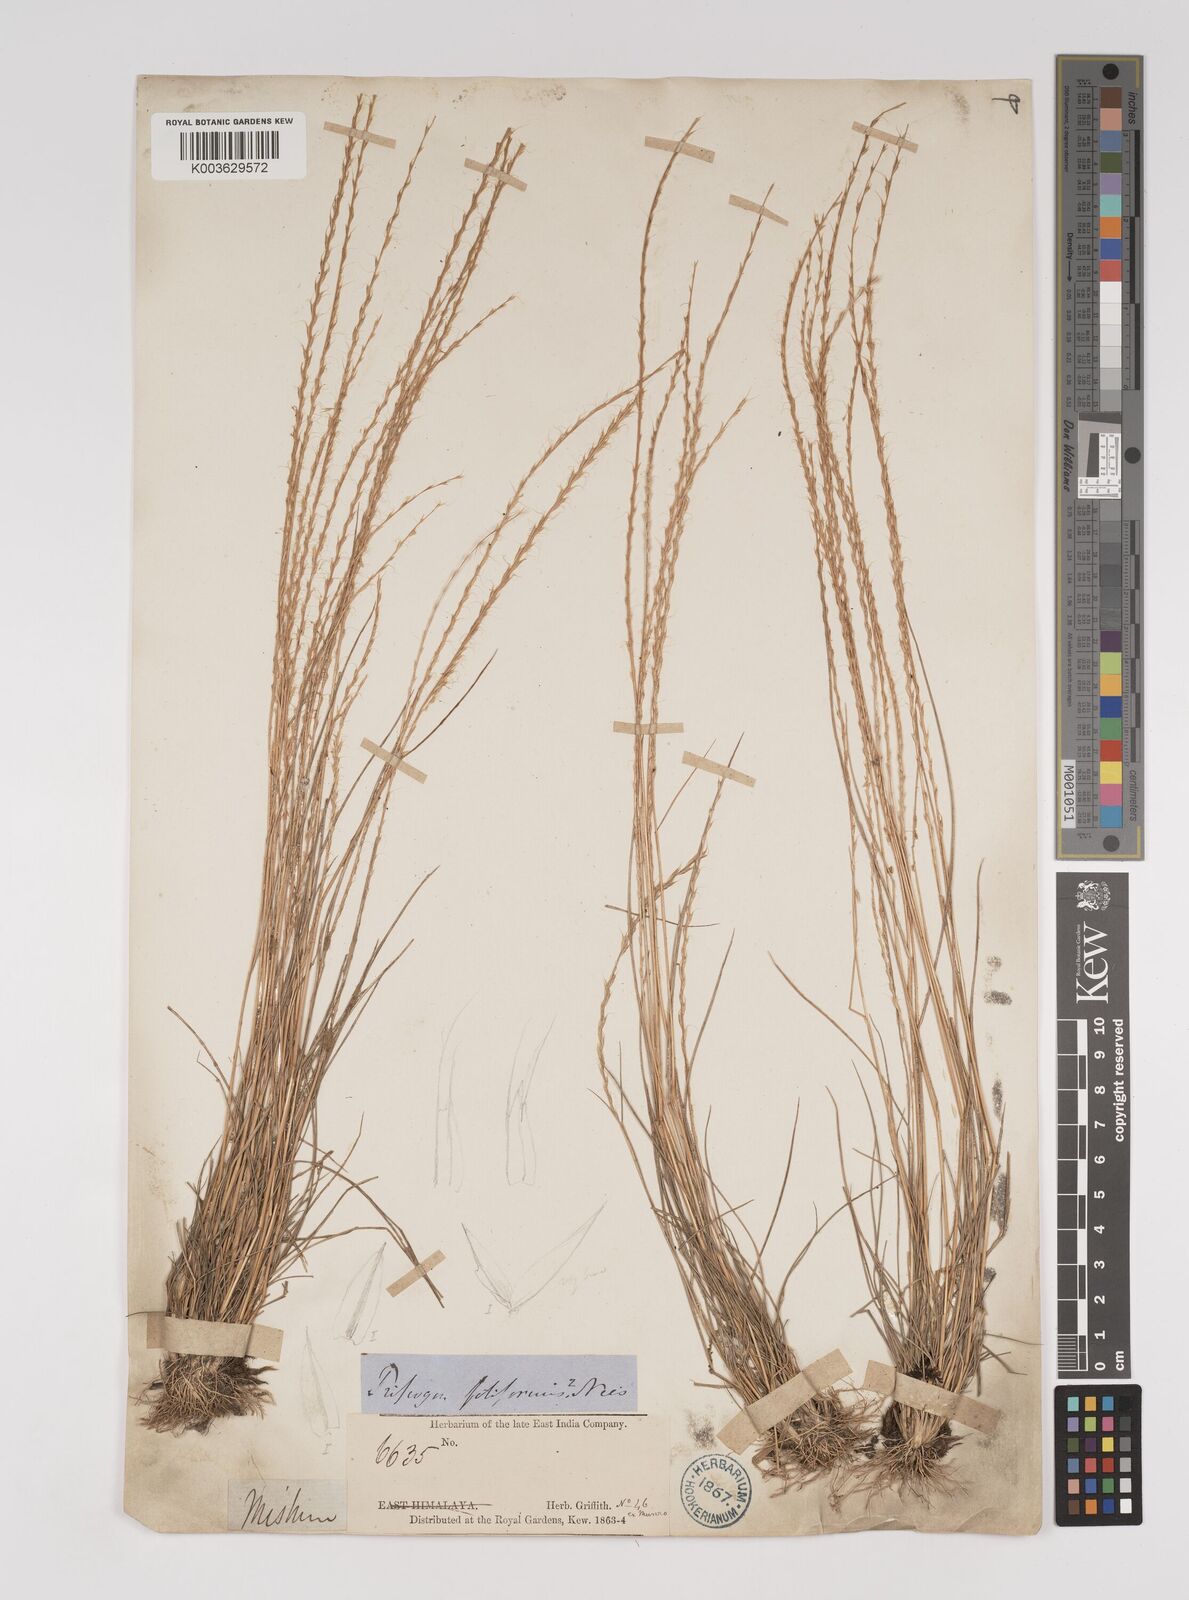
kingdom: Plantae
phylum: Tracheophyta
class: Liliopsida
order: Poales
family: Poaceae
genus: Tripogon
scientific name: Tripogon filiformis
